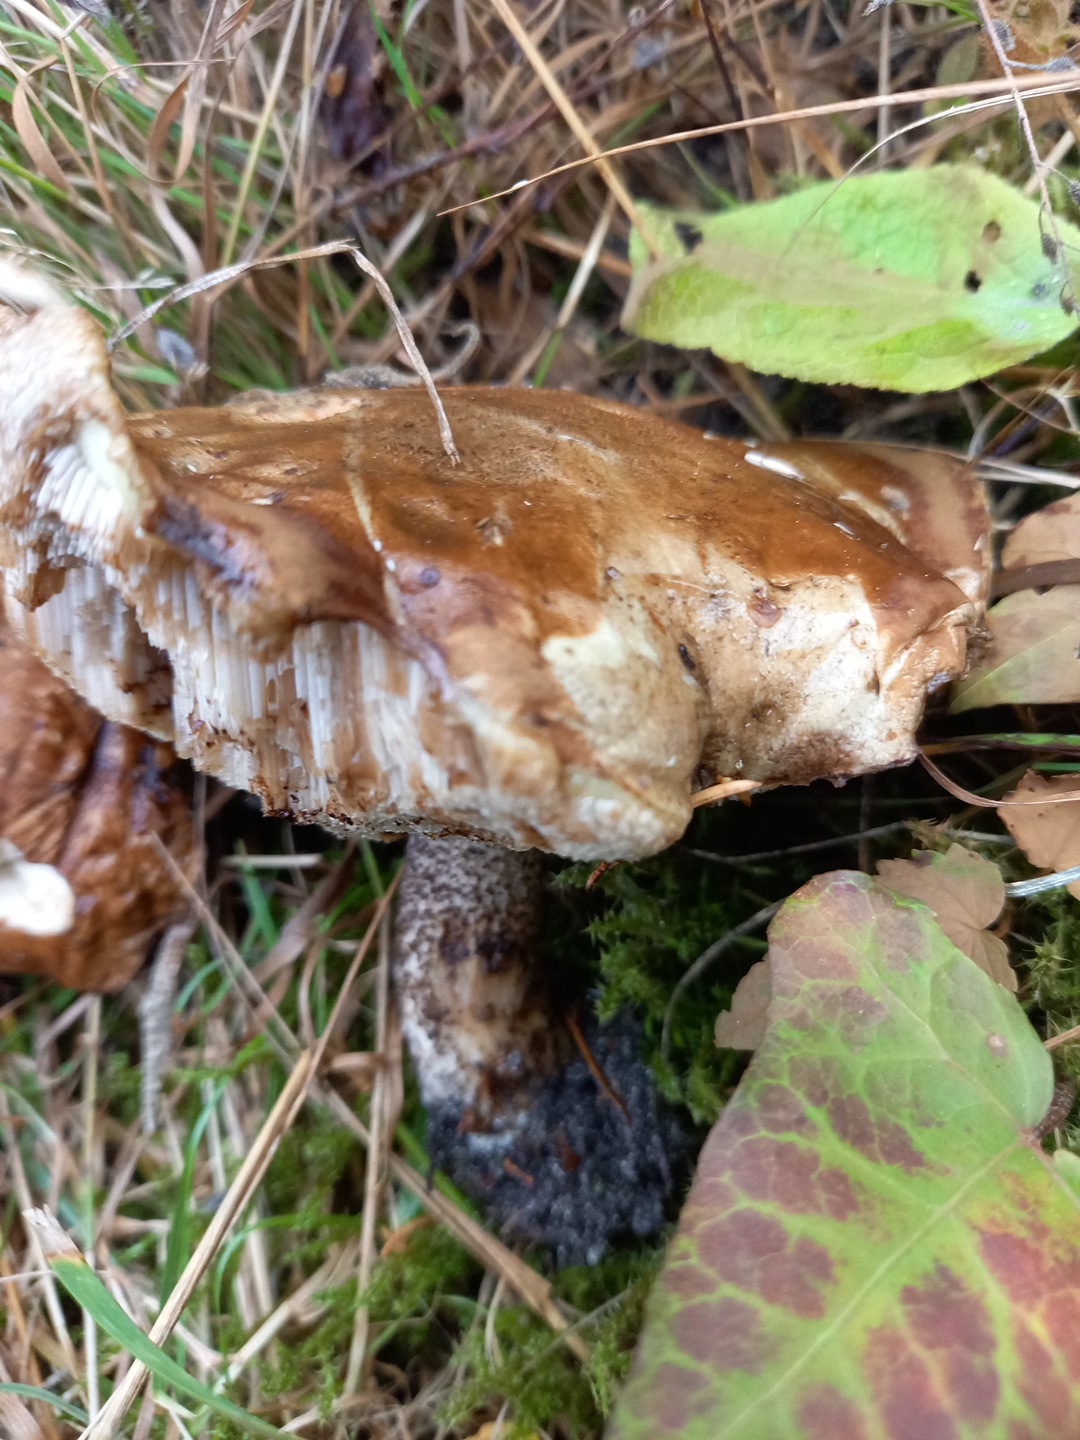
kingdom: Fungi
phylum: Basidiomycota
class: Agaricomycetes
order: Boletales
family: Boletaceae
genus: Leccinum
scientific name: Leccinum scabrum
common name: brun skælrørhat
